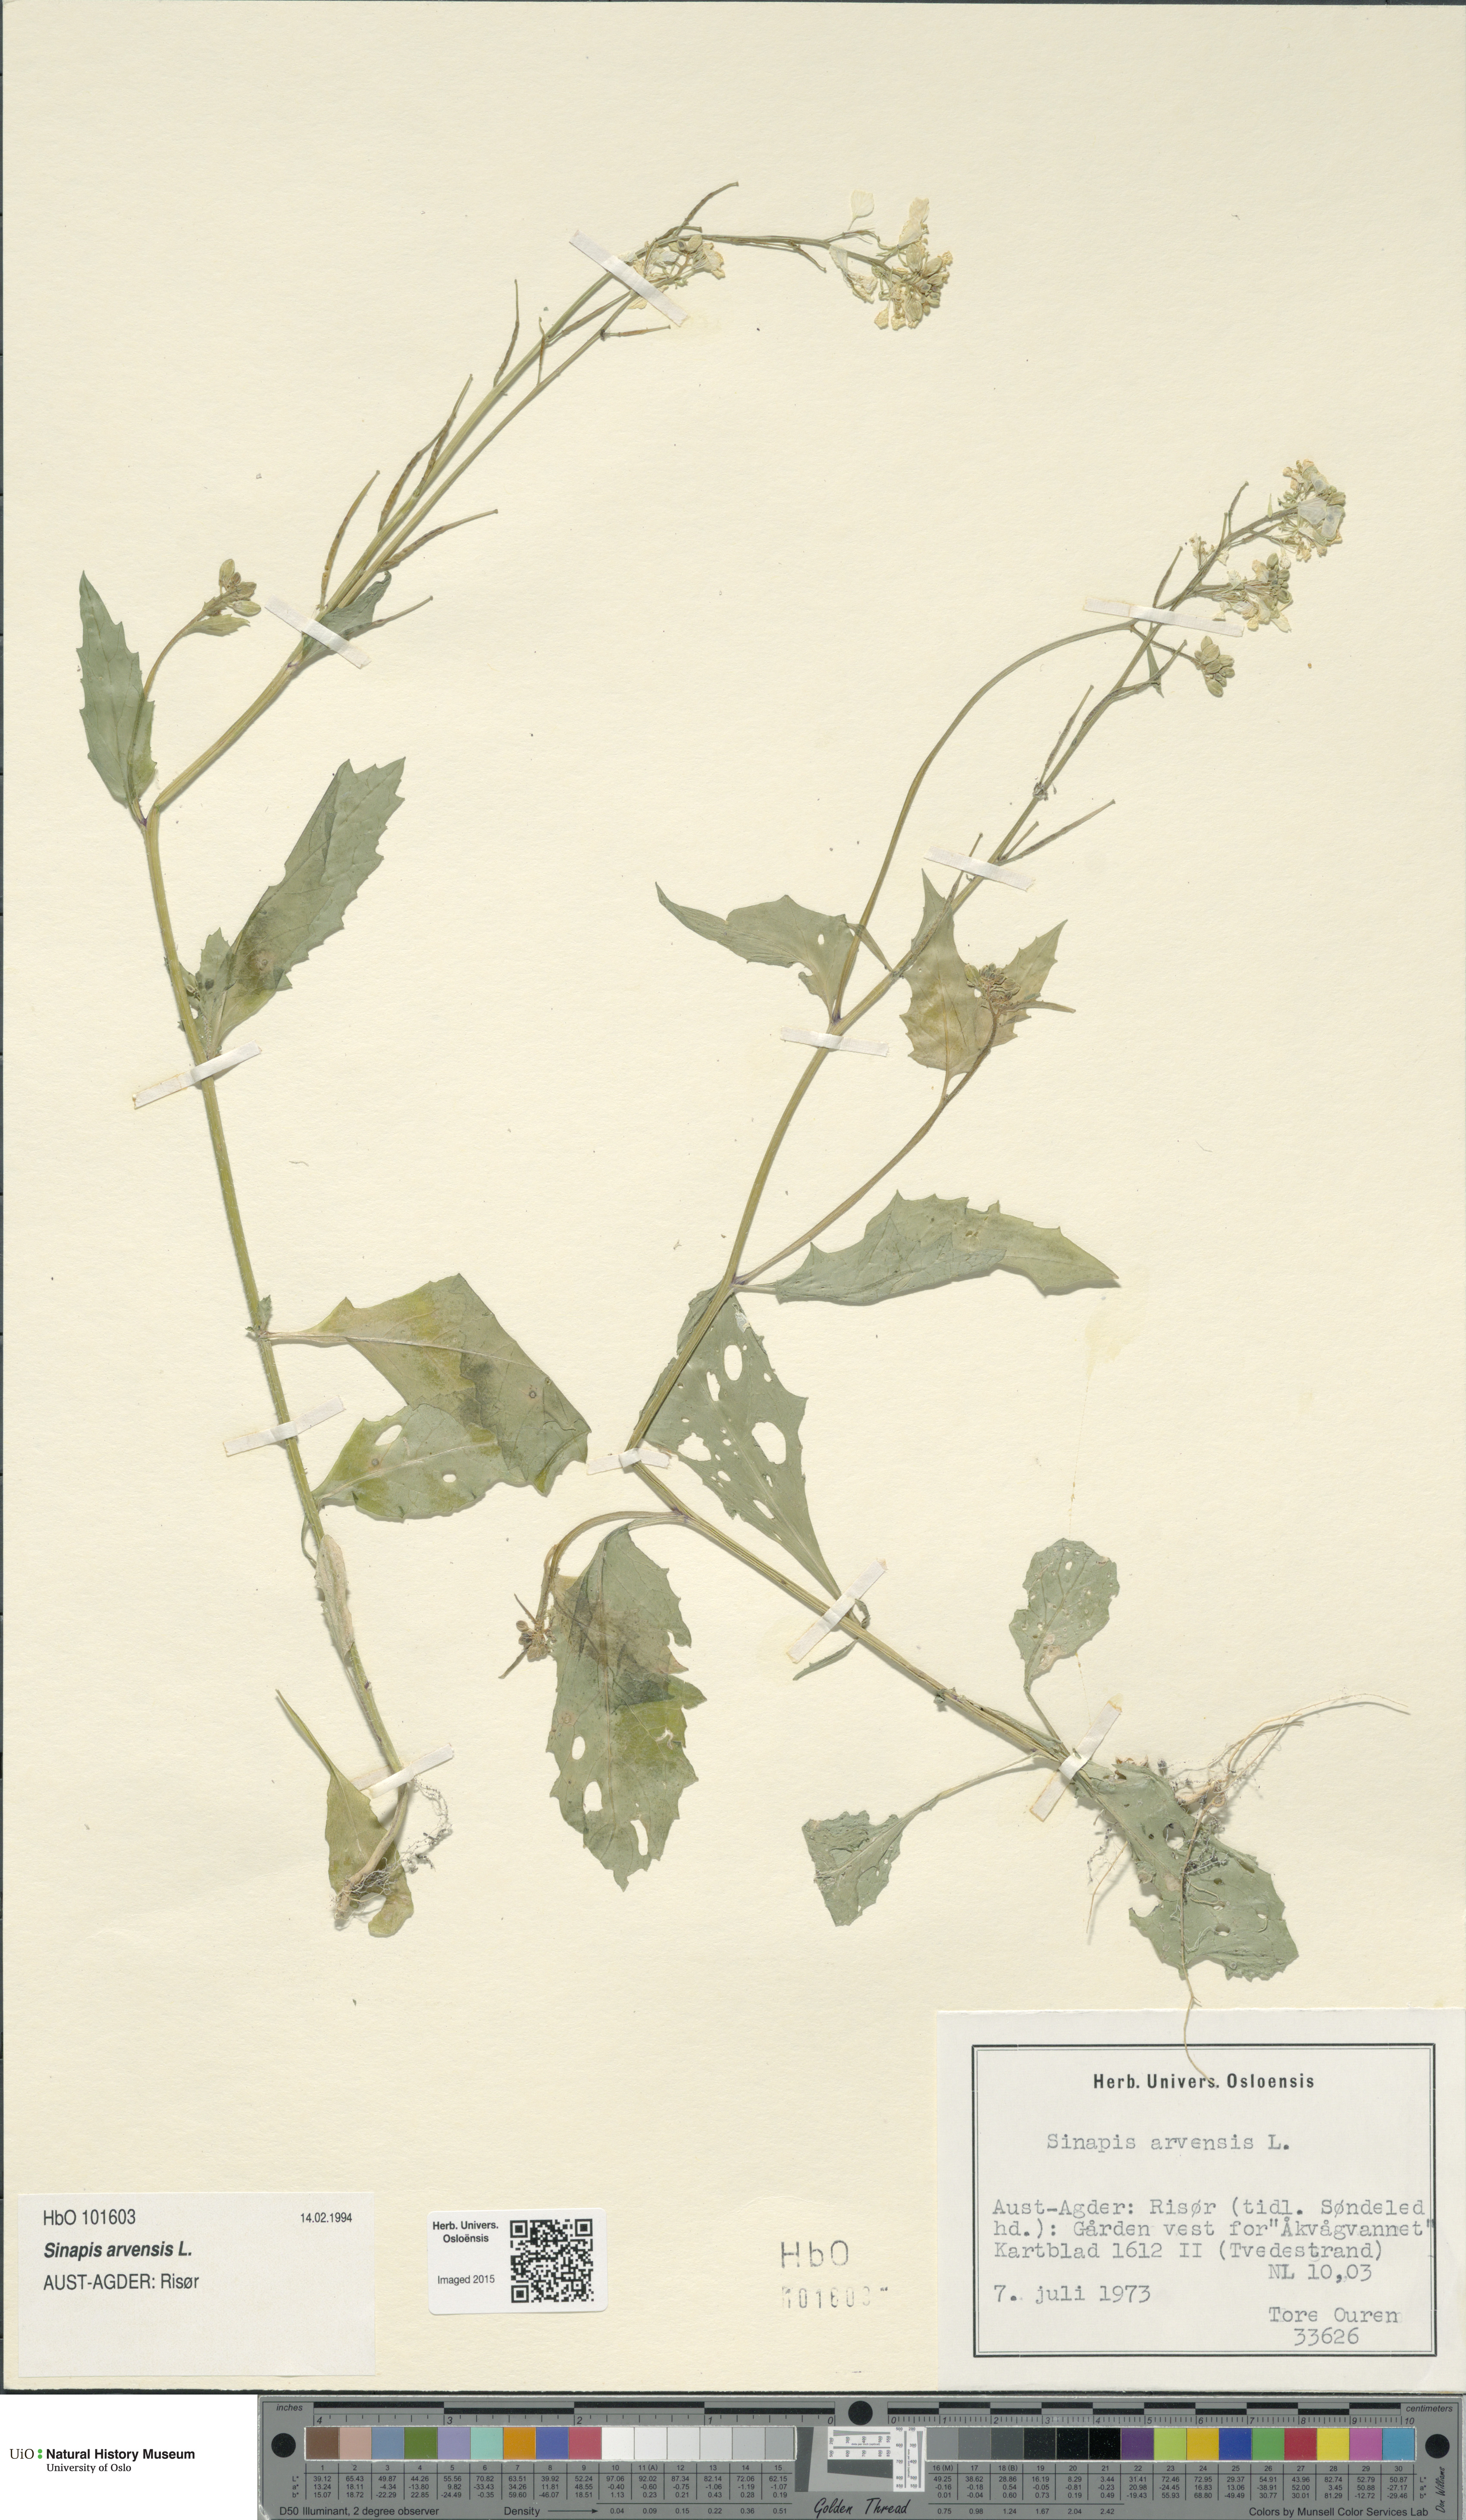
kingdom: Plantae
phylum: Tracheophyta
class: Magnoliopsida
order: Brassicales
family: Brassicaceae
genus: Sinapis
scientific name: Sinapis arvensis
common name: Charlock
